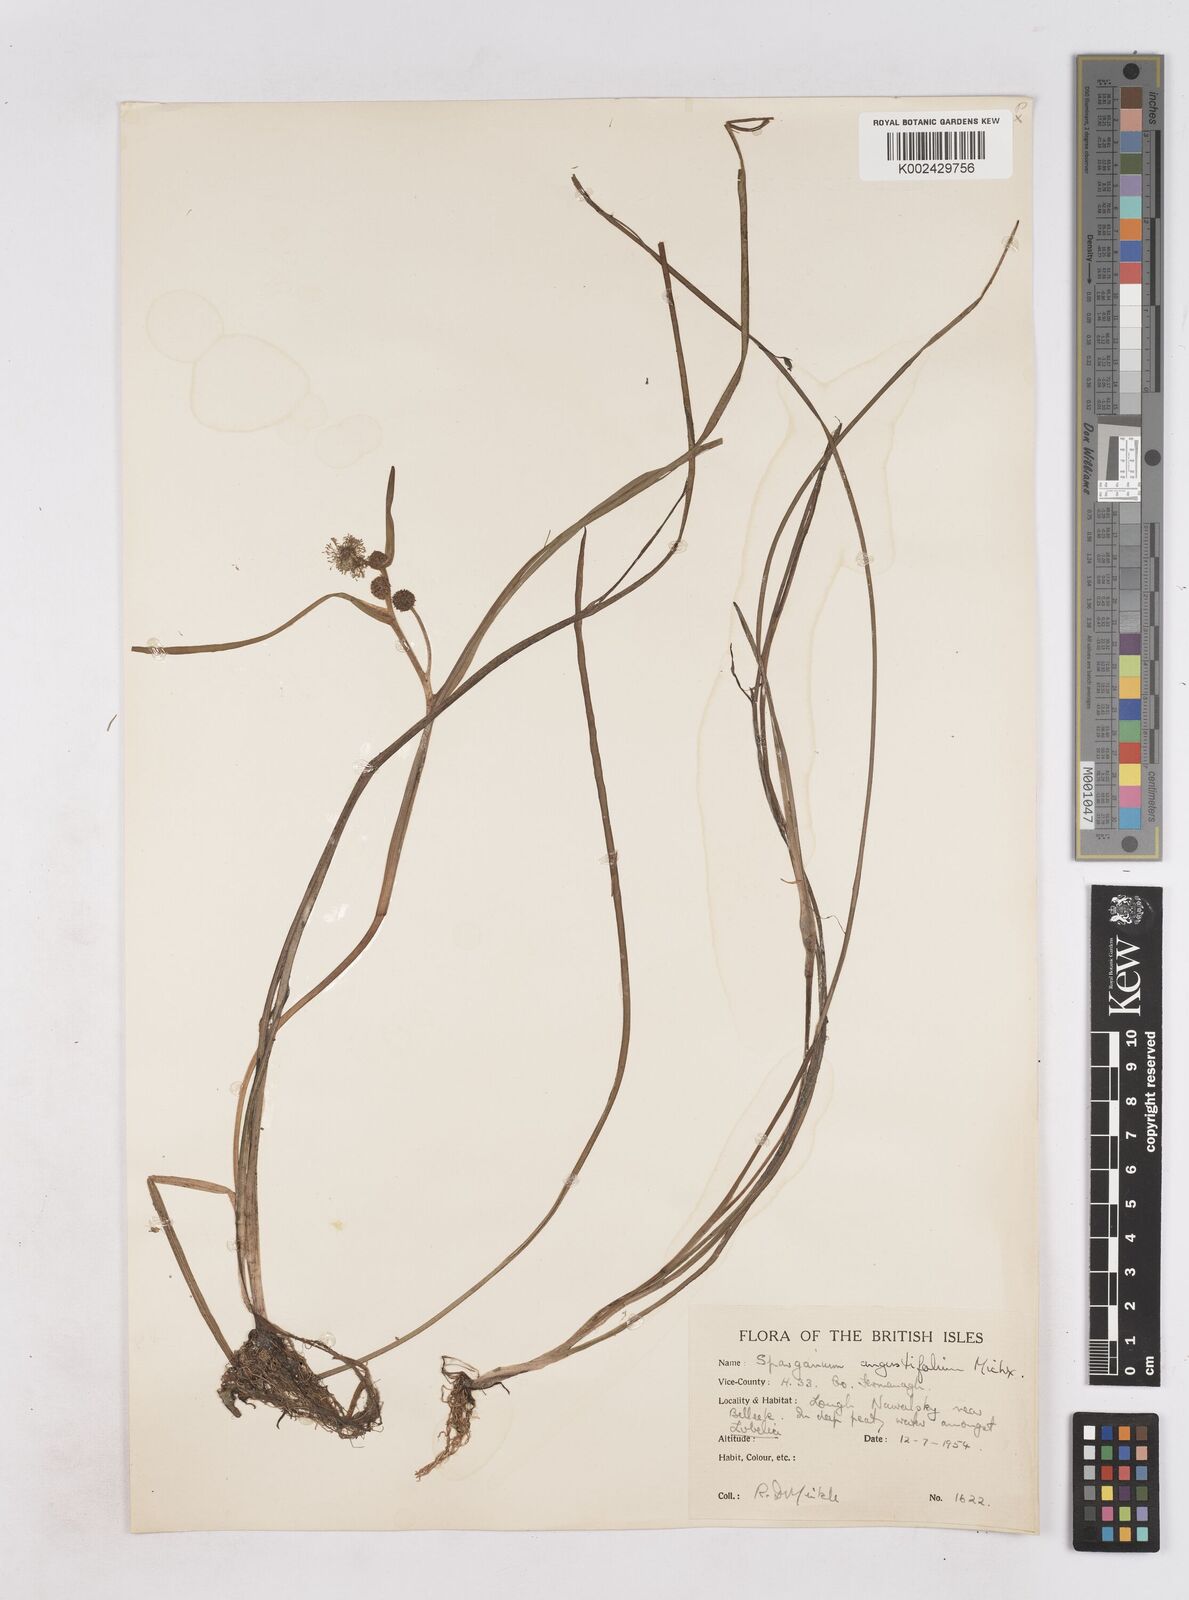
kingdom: Plantae
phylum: Tracheophyta
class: Liliopsida
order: Poales
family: Typhaceae
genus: Sparganium
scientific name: Sparganium angustifolium
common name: Floating bur-reed
